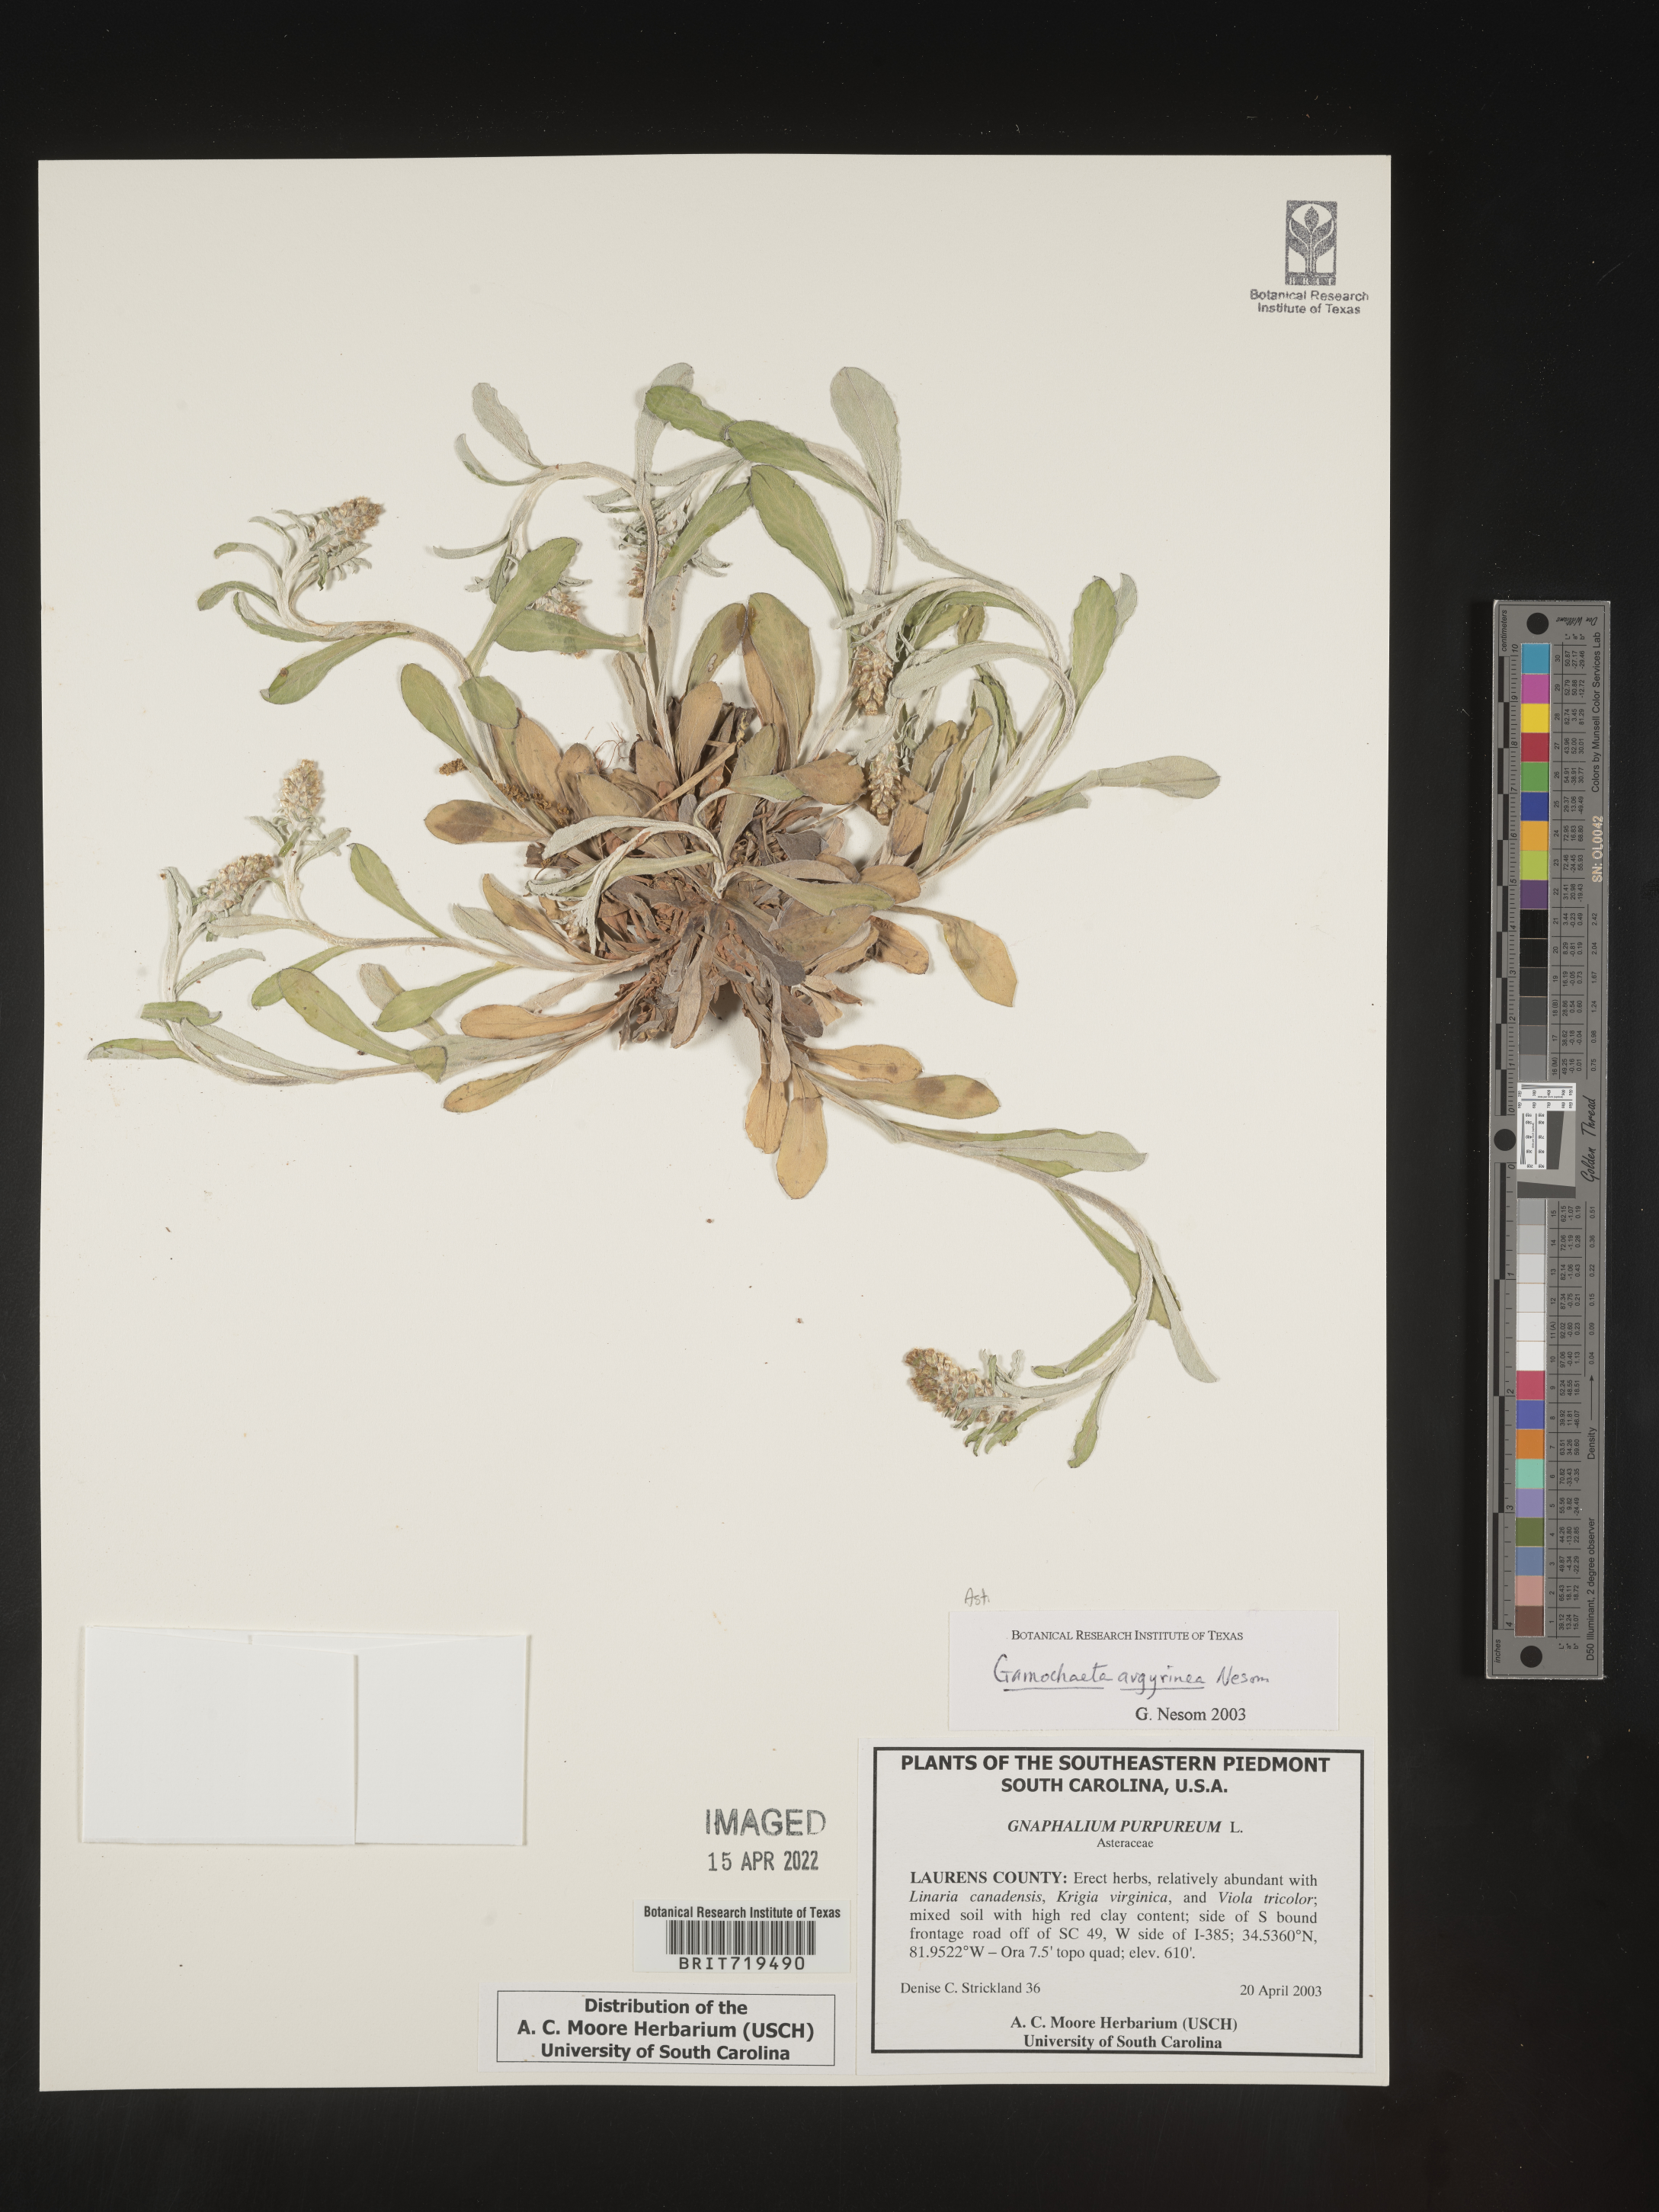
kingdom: Plantae
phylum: Tracheophyta
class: Magnoliopsida
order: Asterales
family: Asteraceae
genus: Gamochaeta
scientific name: Gamochaeta argyrinea
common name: Silvery cudweed
